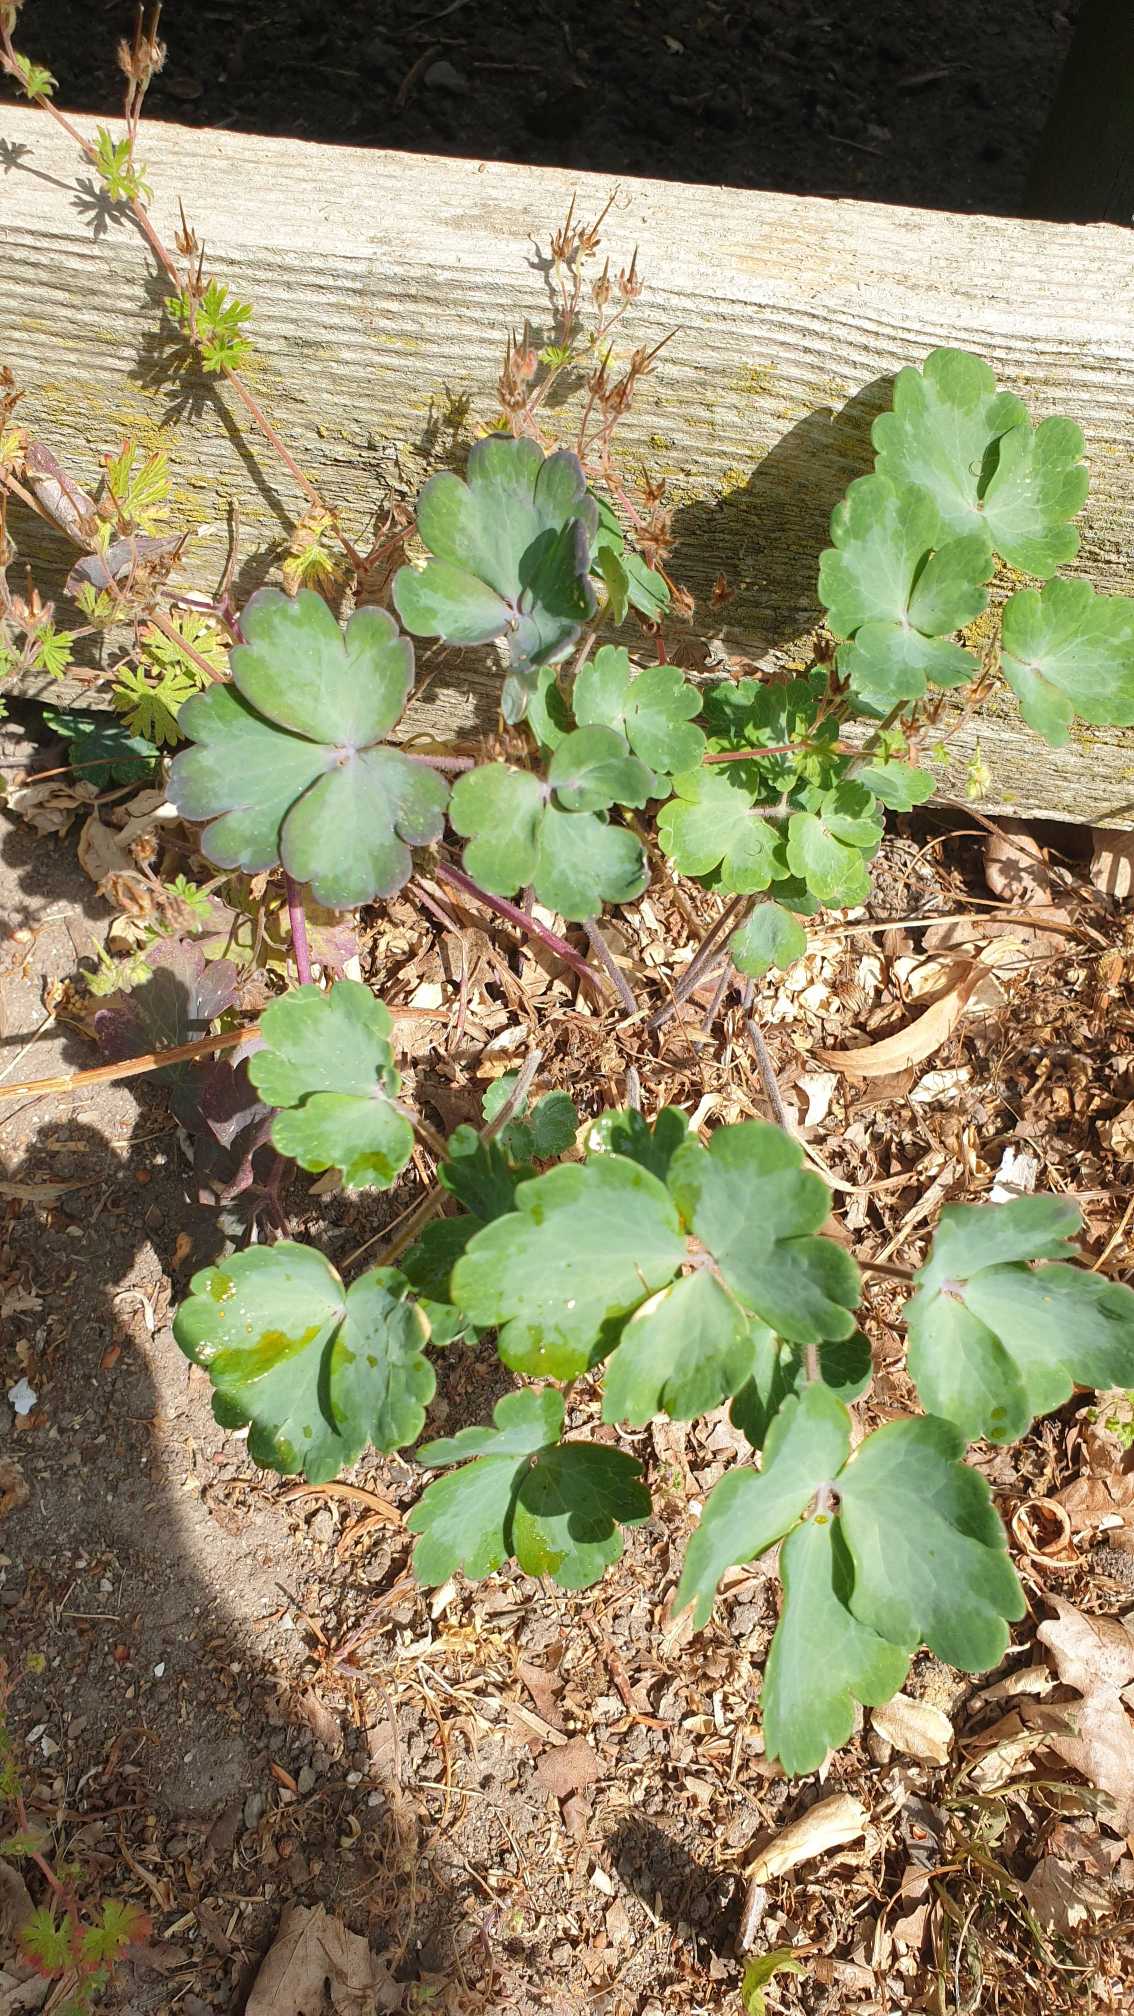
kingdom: Plantae
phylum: Tracheophyta
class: Magnoliopsida
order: Ranunculales
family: Ranunculaceae
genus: Aquilegia
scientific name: Aquilegia vulgaris
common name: Akeleje
